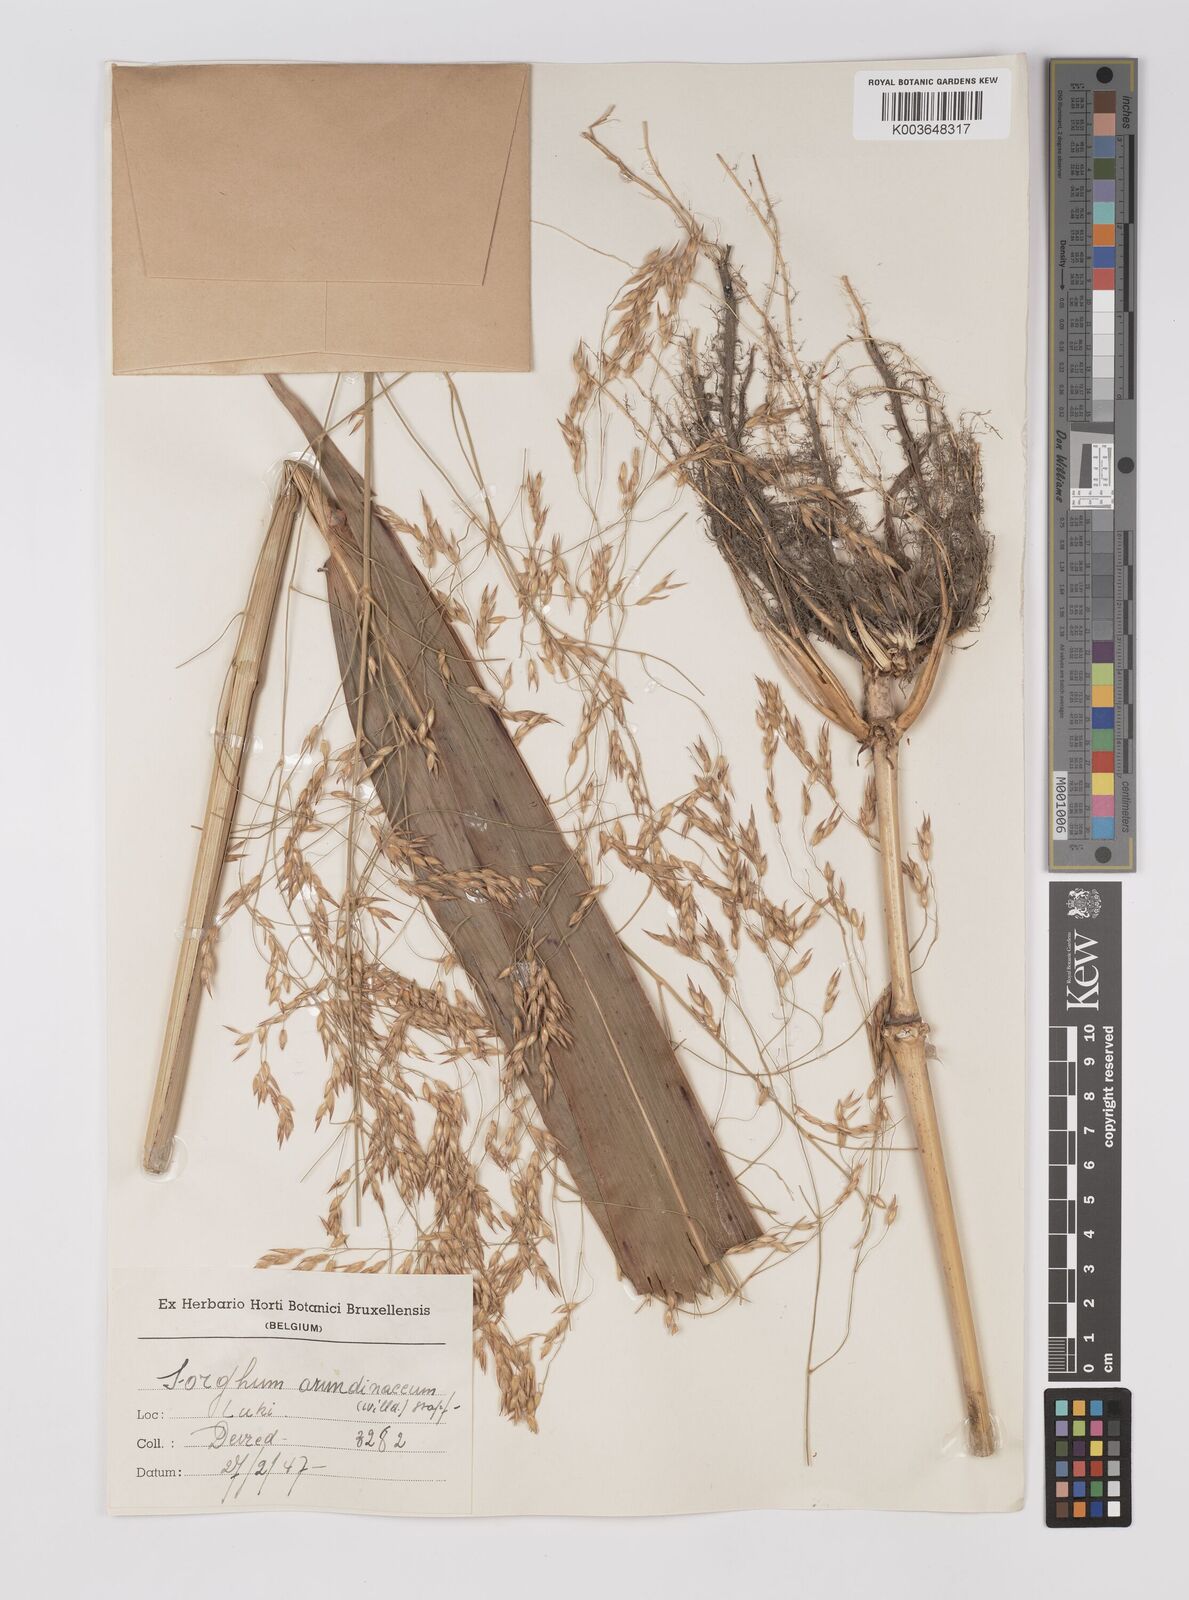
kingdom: Plantae
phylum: Tracheophyta
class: Liliopsida
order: Poales
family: Poaceae
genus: Sorghum
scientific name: Sorghum arundinaceum
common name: Sorghum
